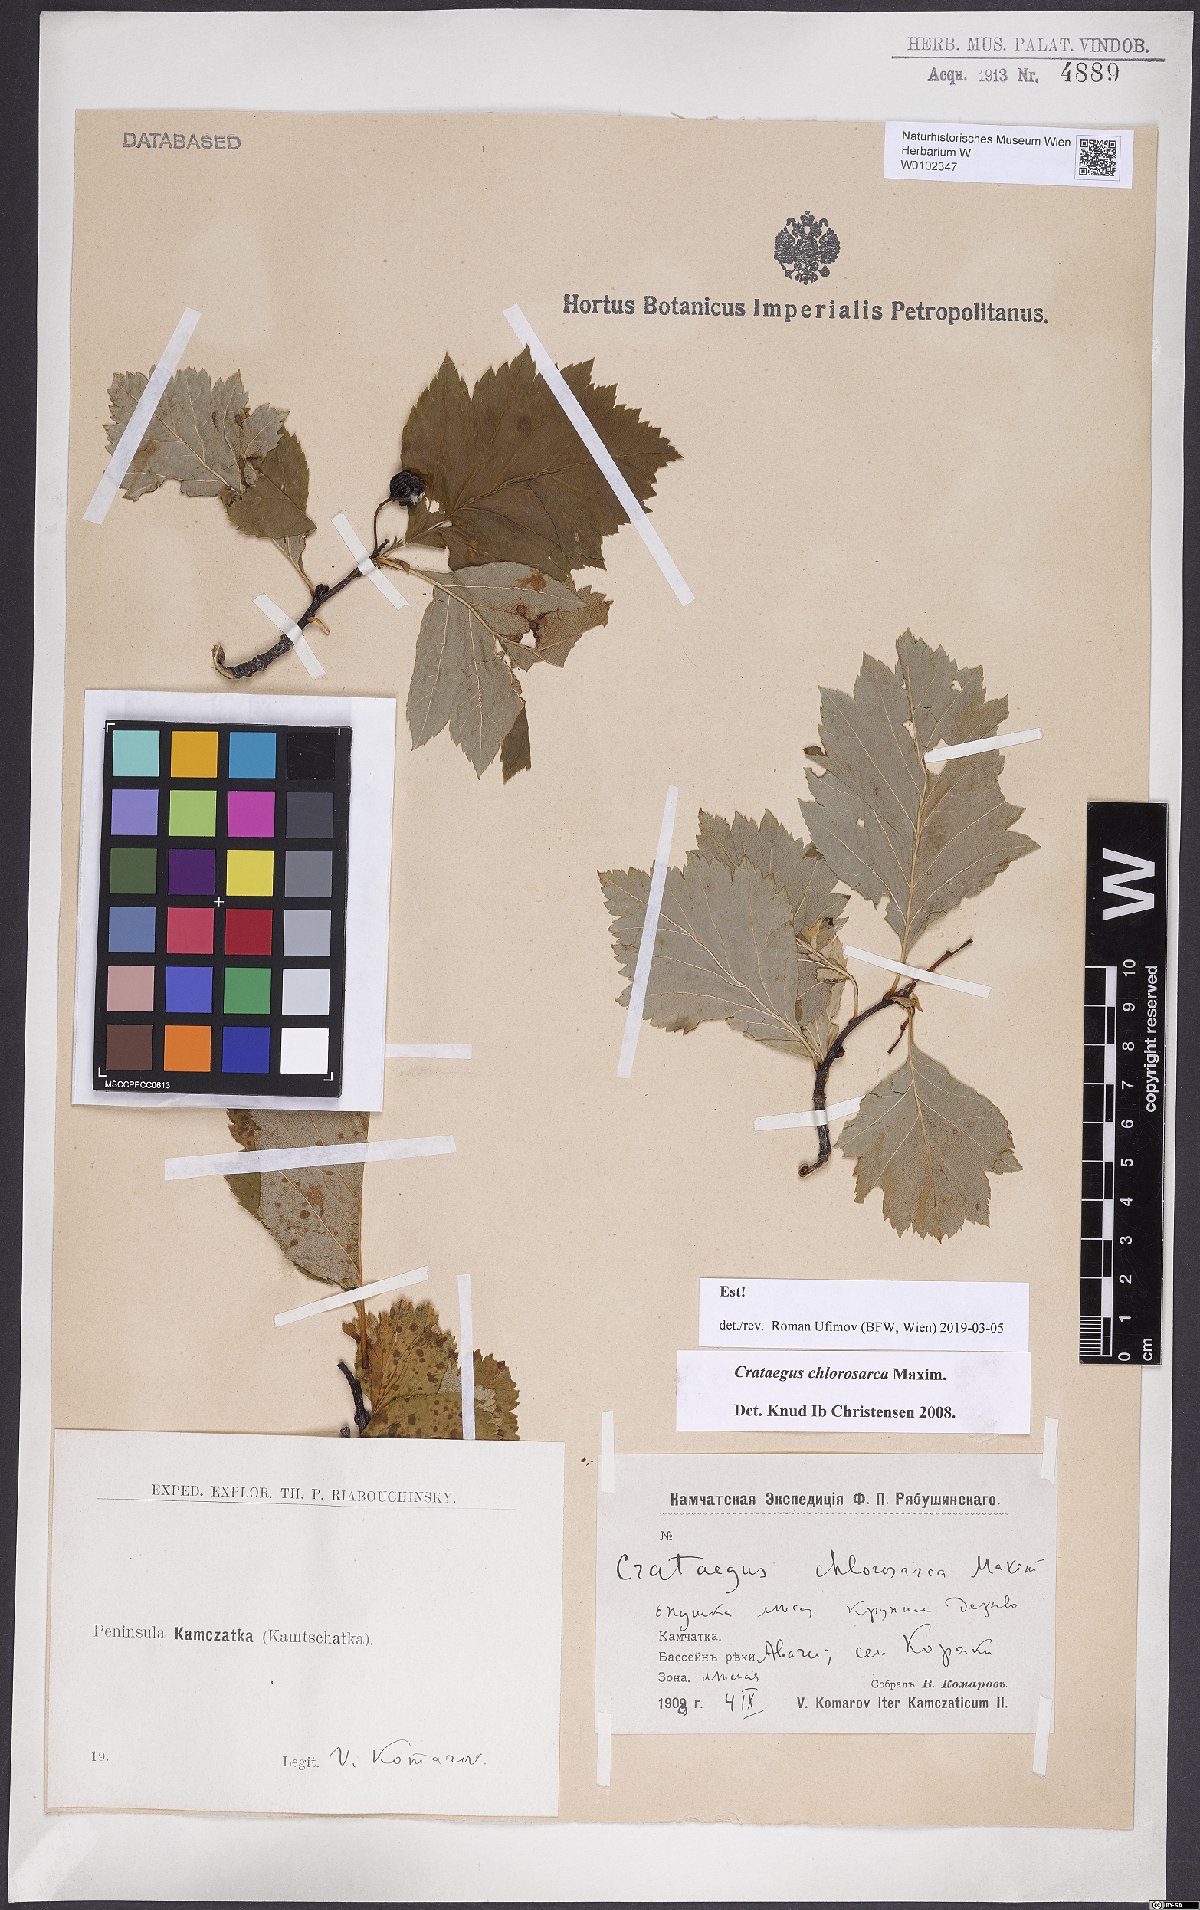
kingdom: Plantae
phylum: Tracheophyta
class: Magnoliopsida
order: Rosales
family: Rosaceae
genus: Crataegus
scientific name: Crataegus chlorosarca
